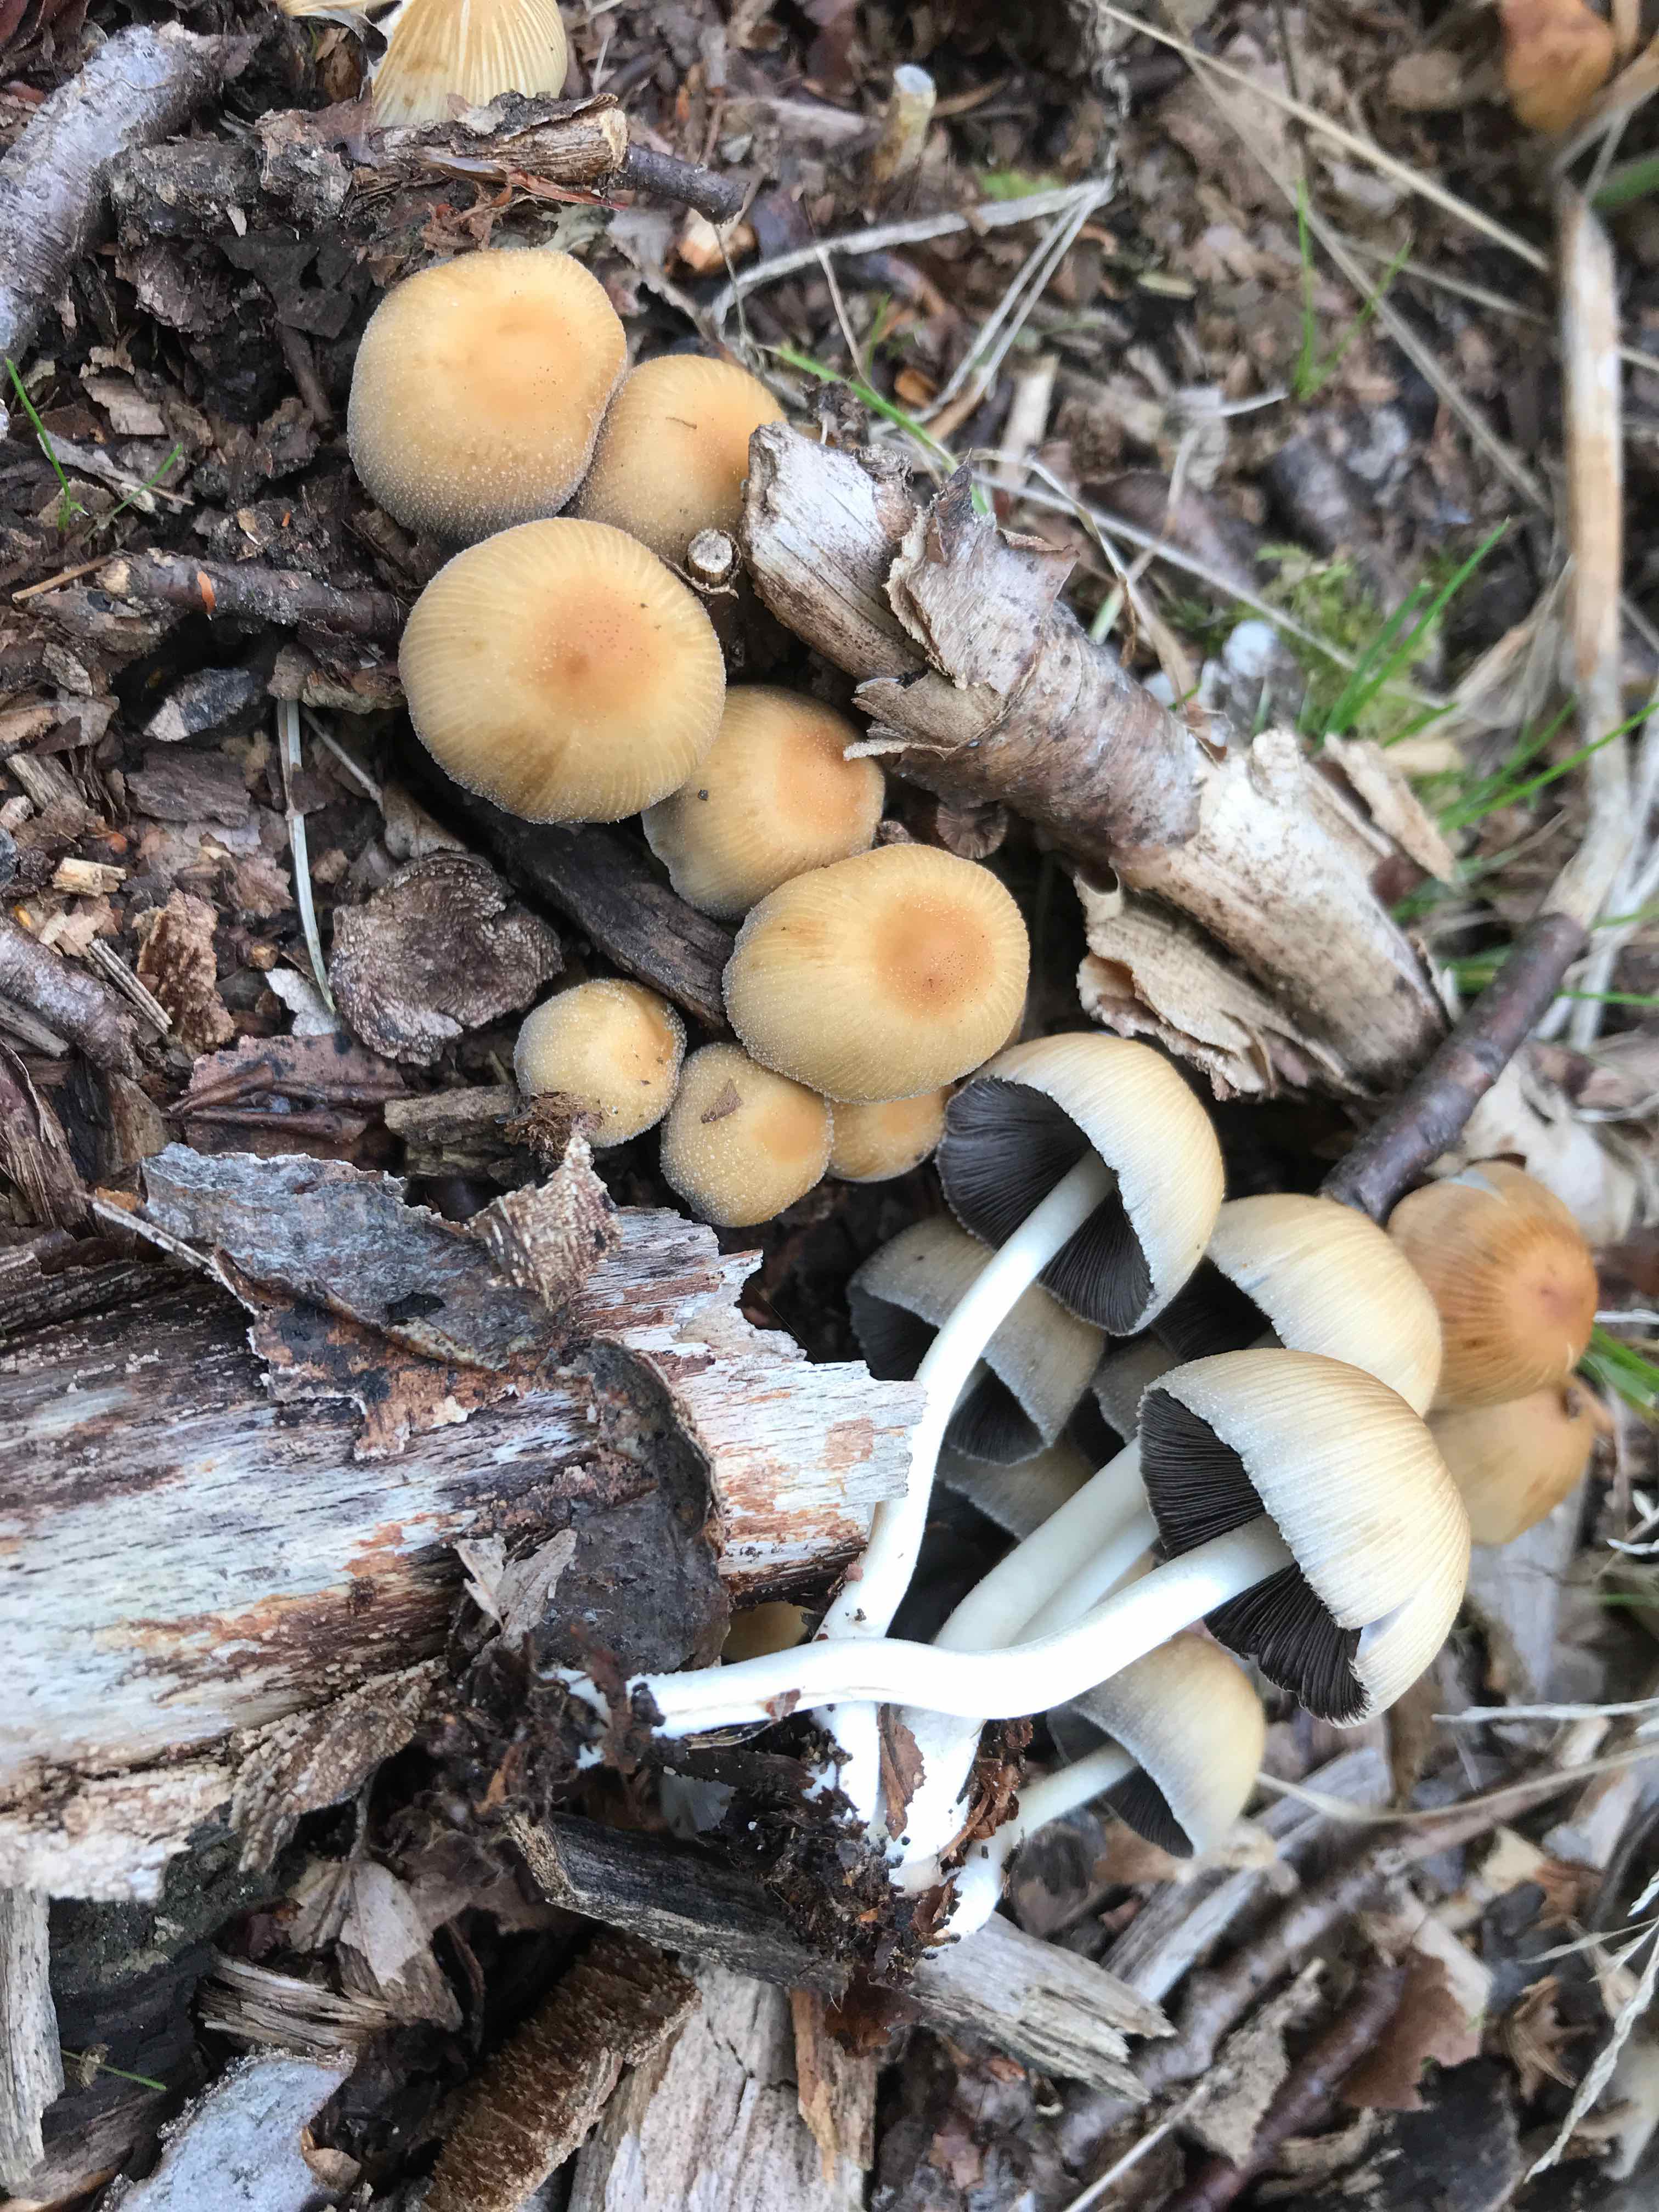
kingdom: Fungi
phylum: Basidiomycota
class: Agaricomycetes
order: Agaricales
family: Psathyrellaceae
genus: Coprinellus
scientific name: Coprinellus micaceus
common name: glimmer-blækhat
